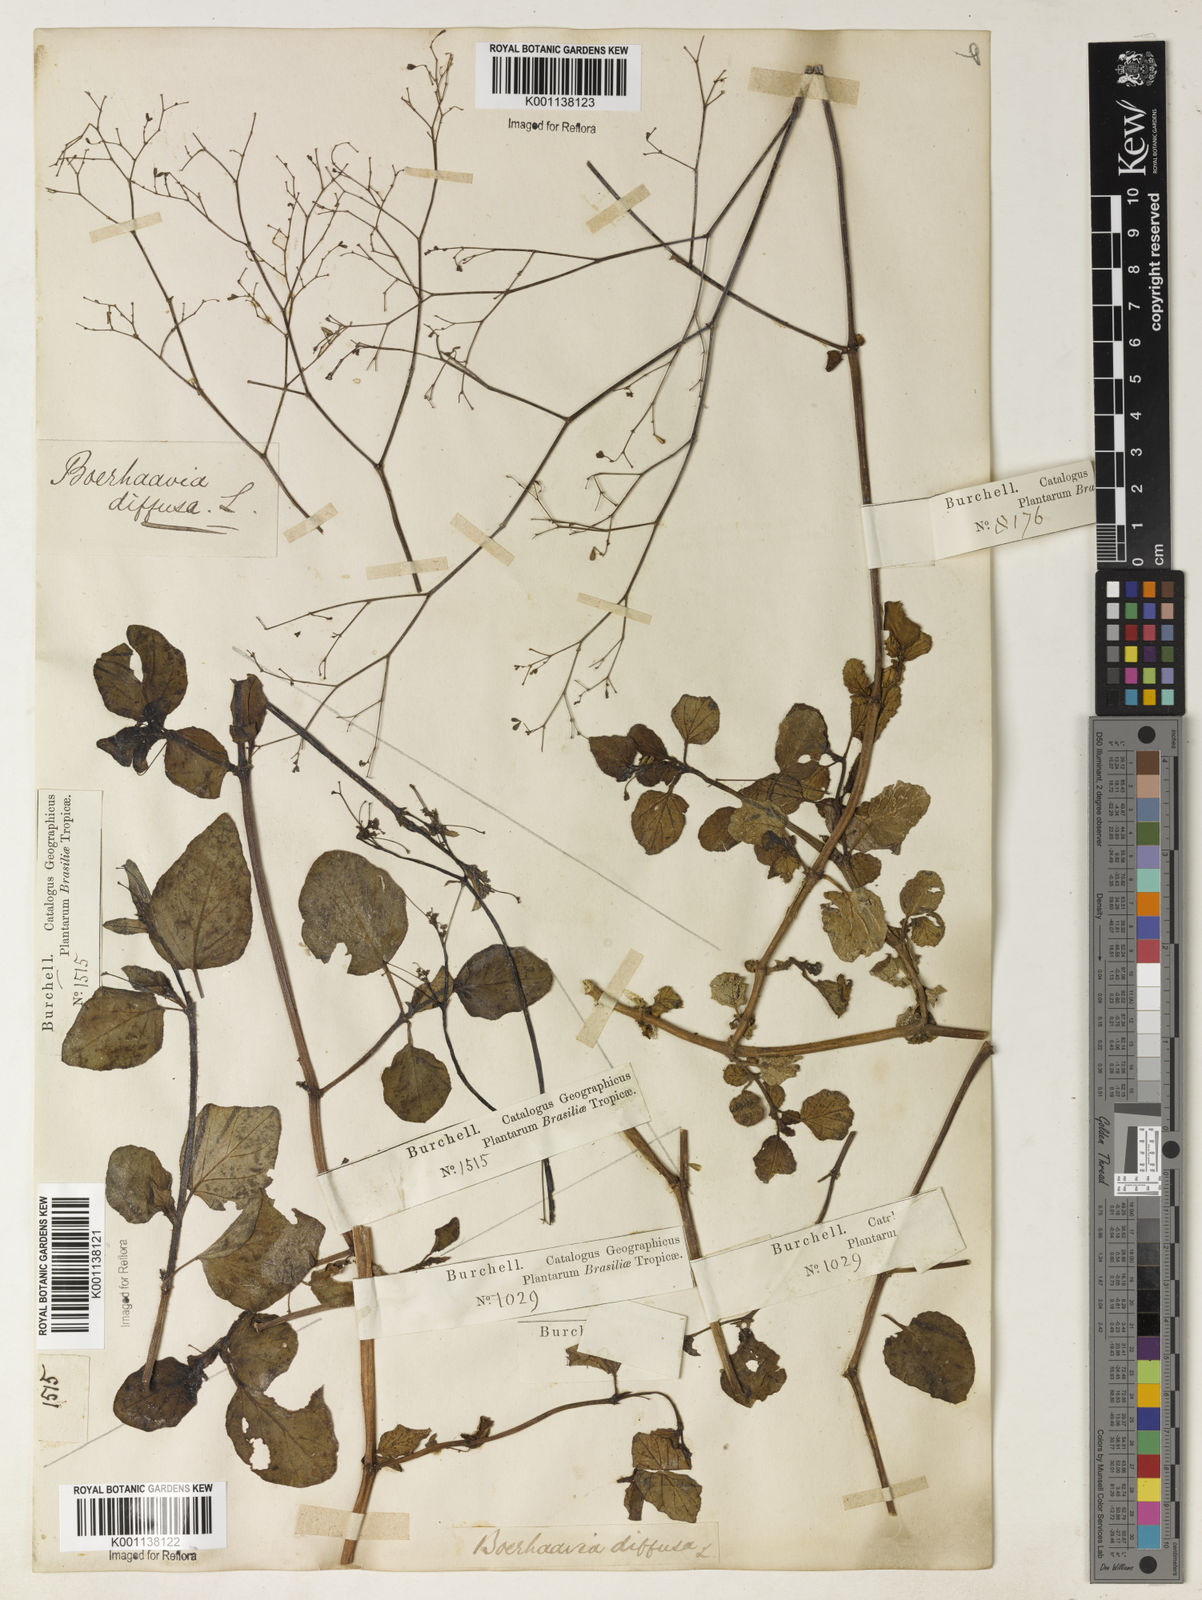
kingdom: Plantae
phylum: Tracheophyta
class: Magnoliopsida
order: Caryophyllales
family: Nyctaginaceae
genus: Boerhavia
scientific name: Boerhavia diffusa
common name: Red spiderling
